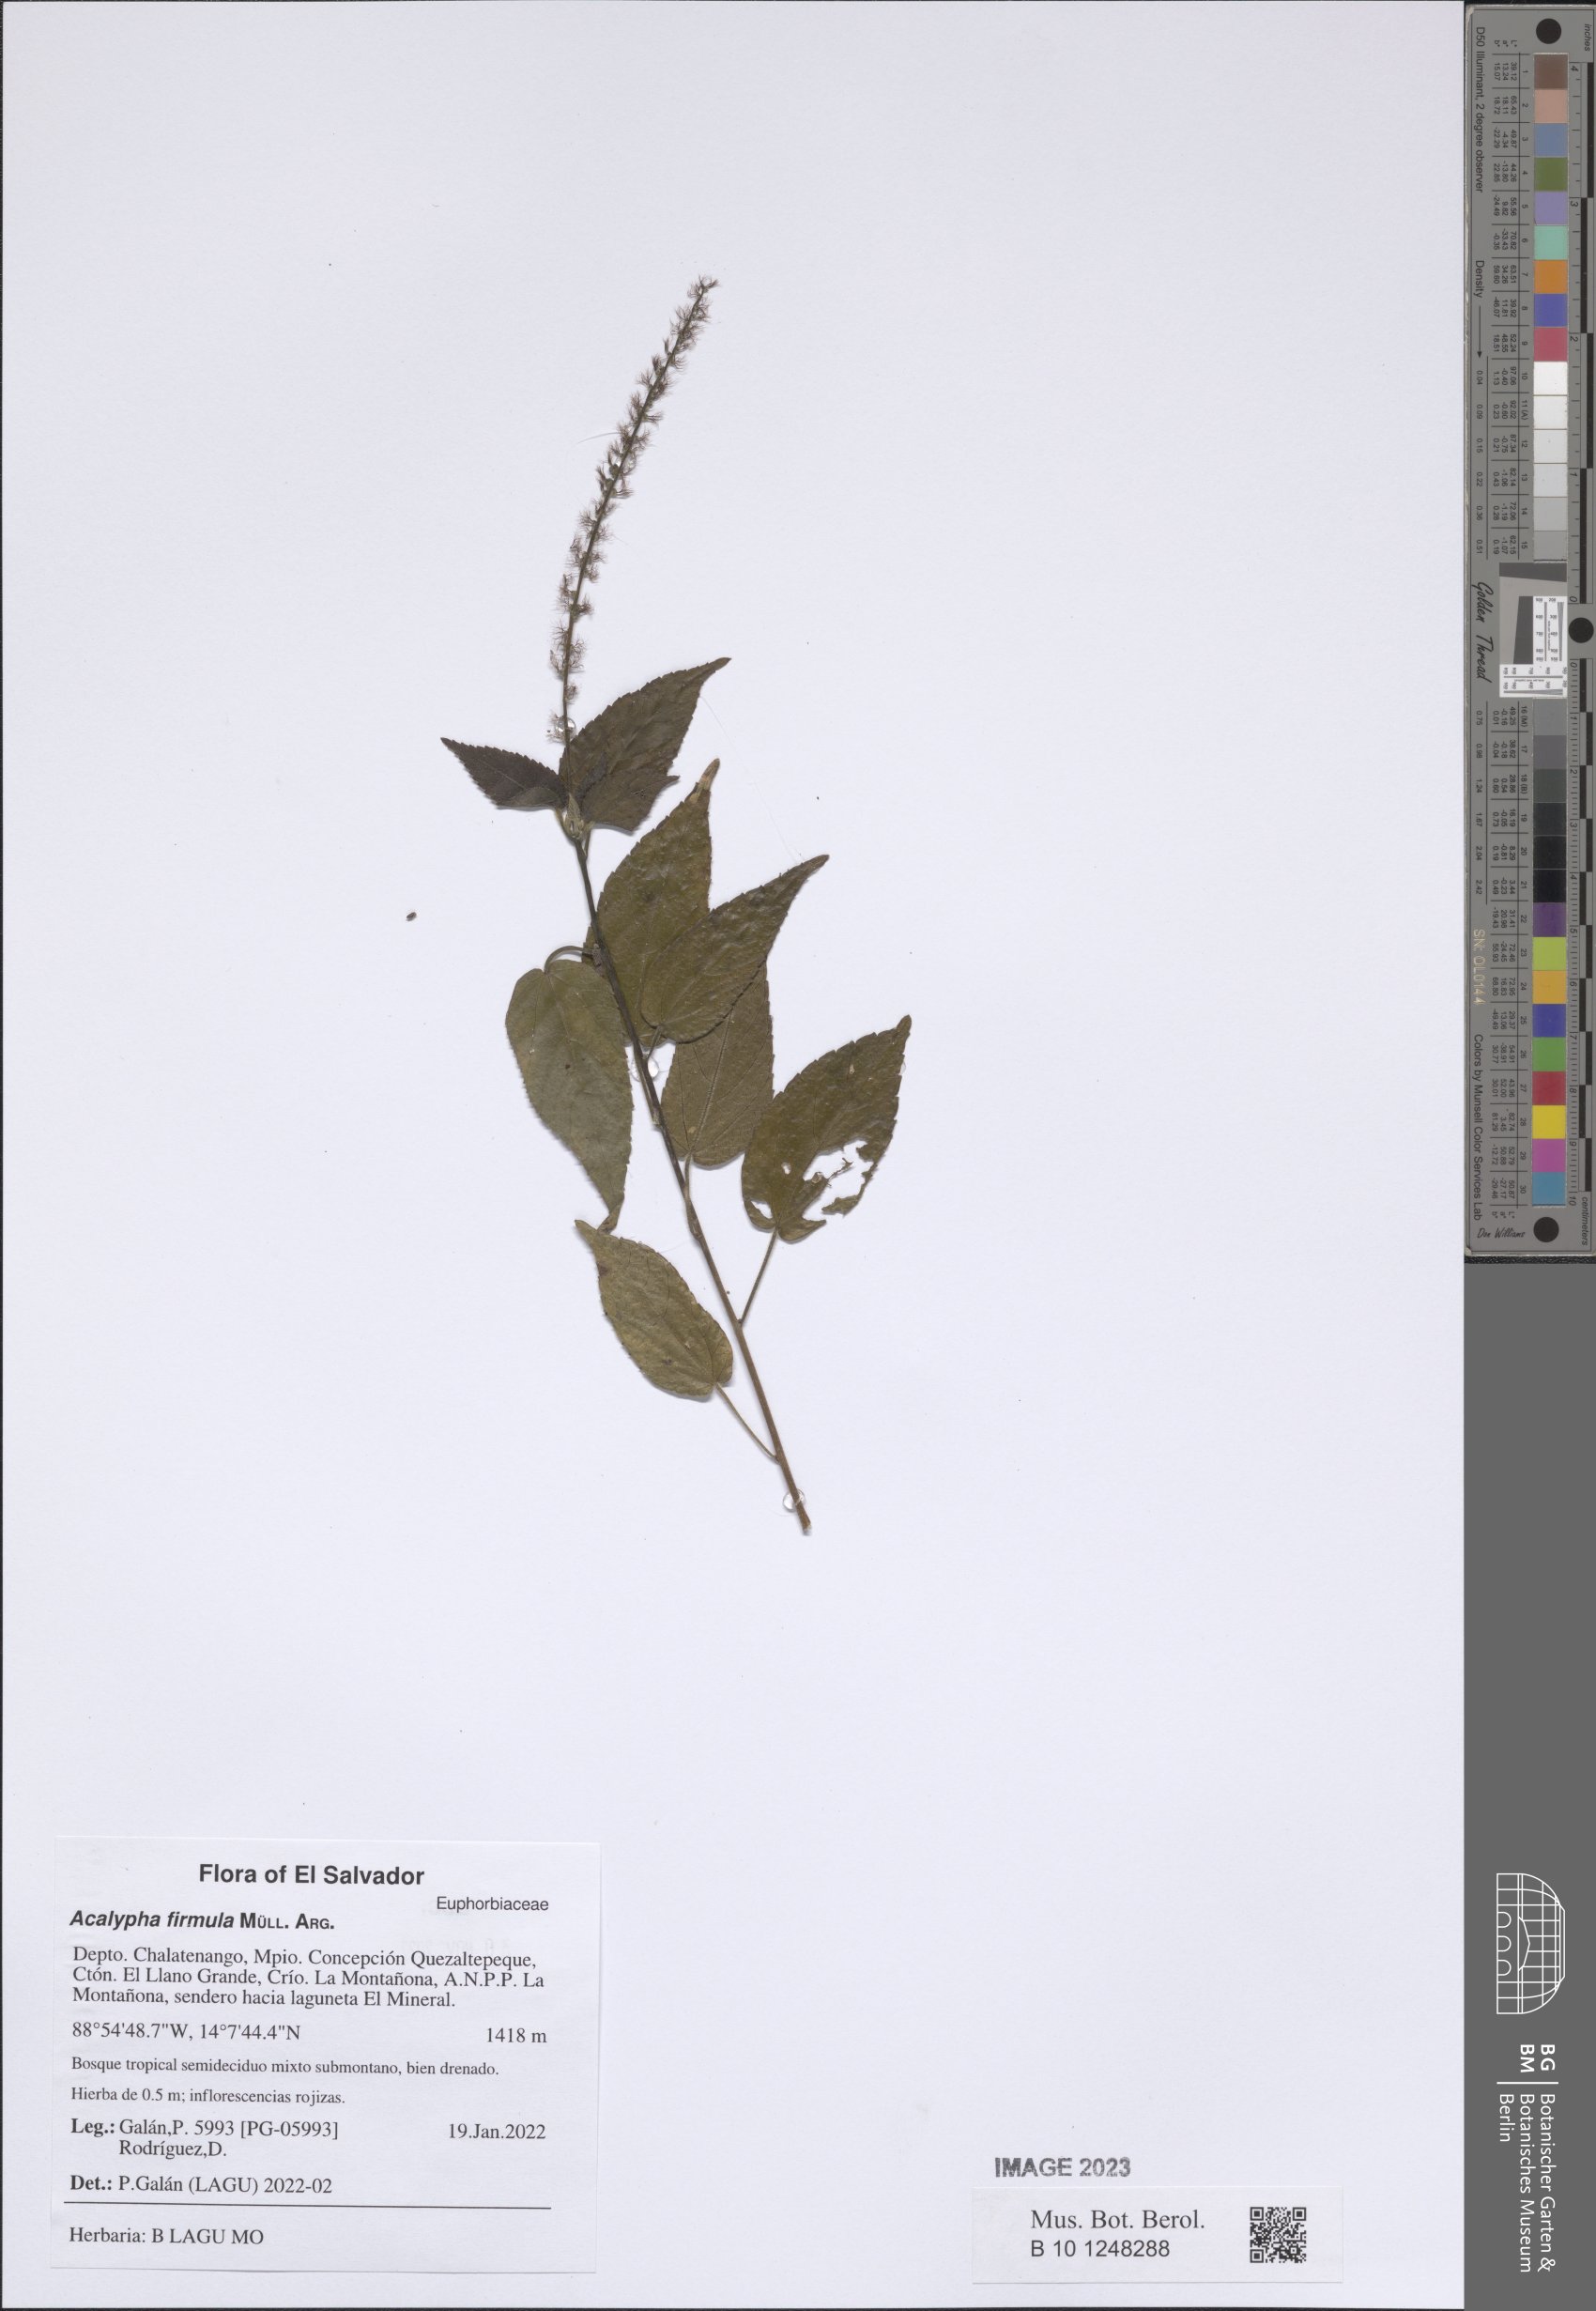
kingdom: Plantae
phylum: Tracheophyta
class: Magnoliopsida
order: Malpighiales
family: Euphorbiaceae
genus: Acalypha
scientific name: Acalypha firmula
